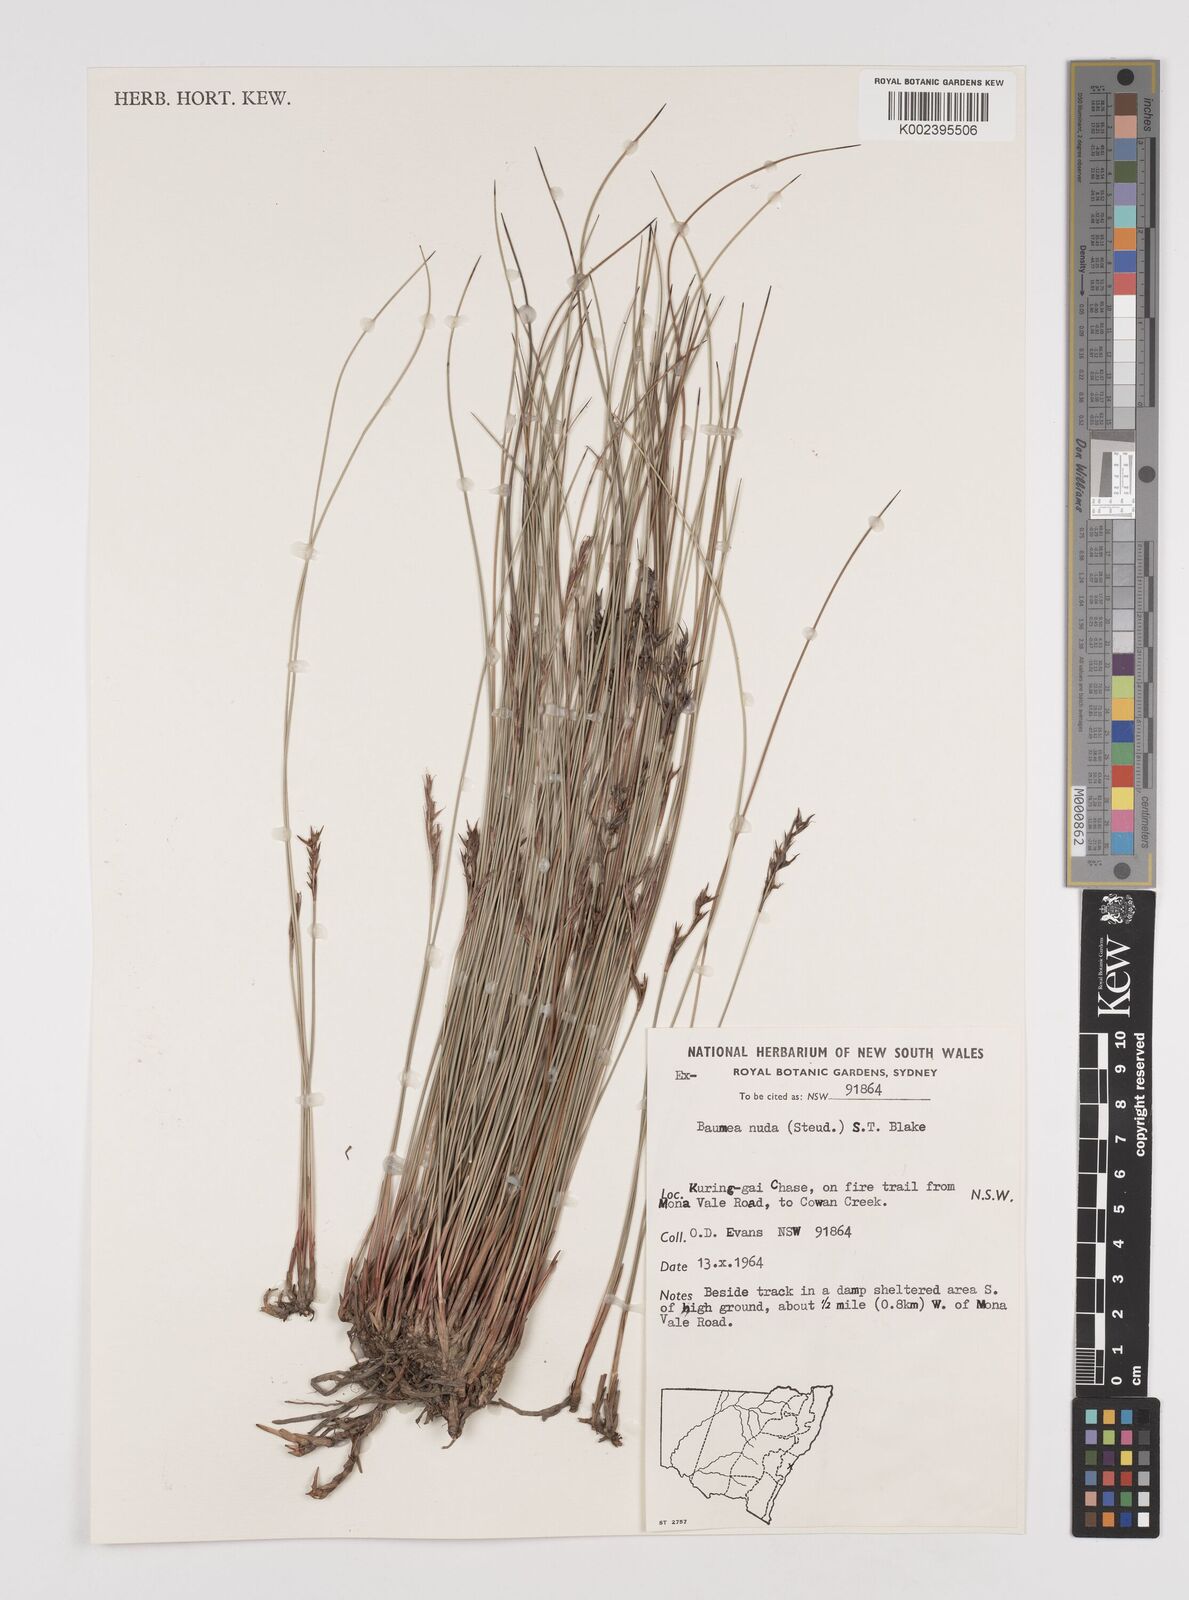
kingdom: Plantae
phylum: Tracheophyta
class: Liliopsida
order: Poales
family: Cyperaceae
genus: Machaerina
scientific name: Machaerina nuda
